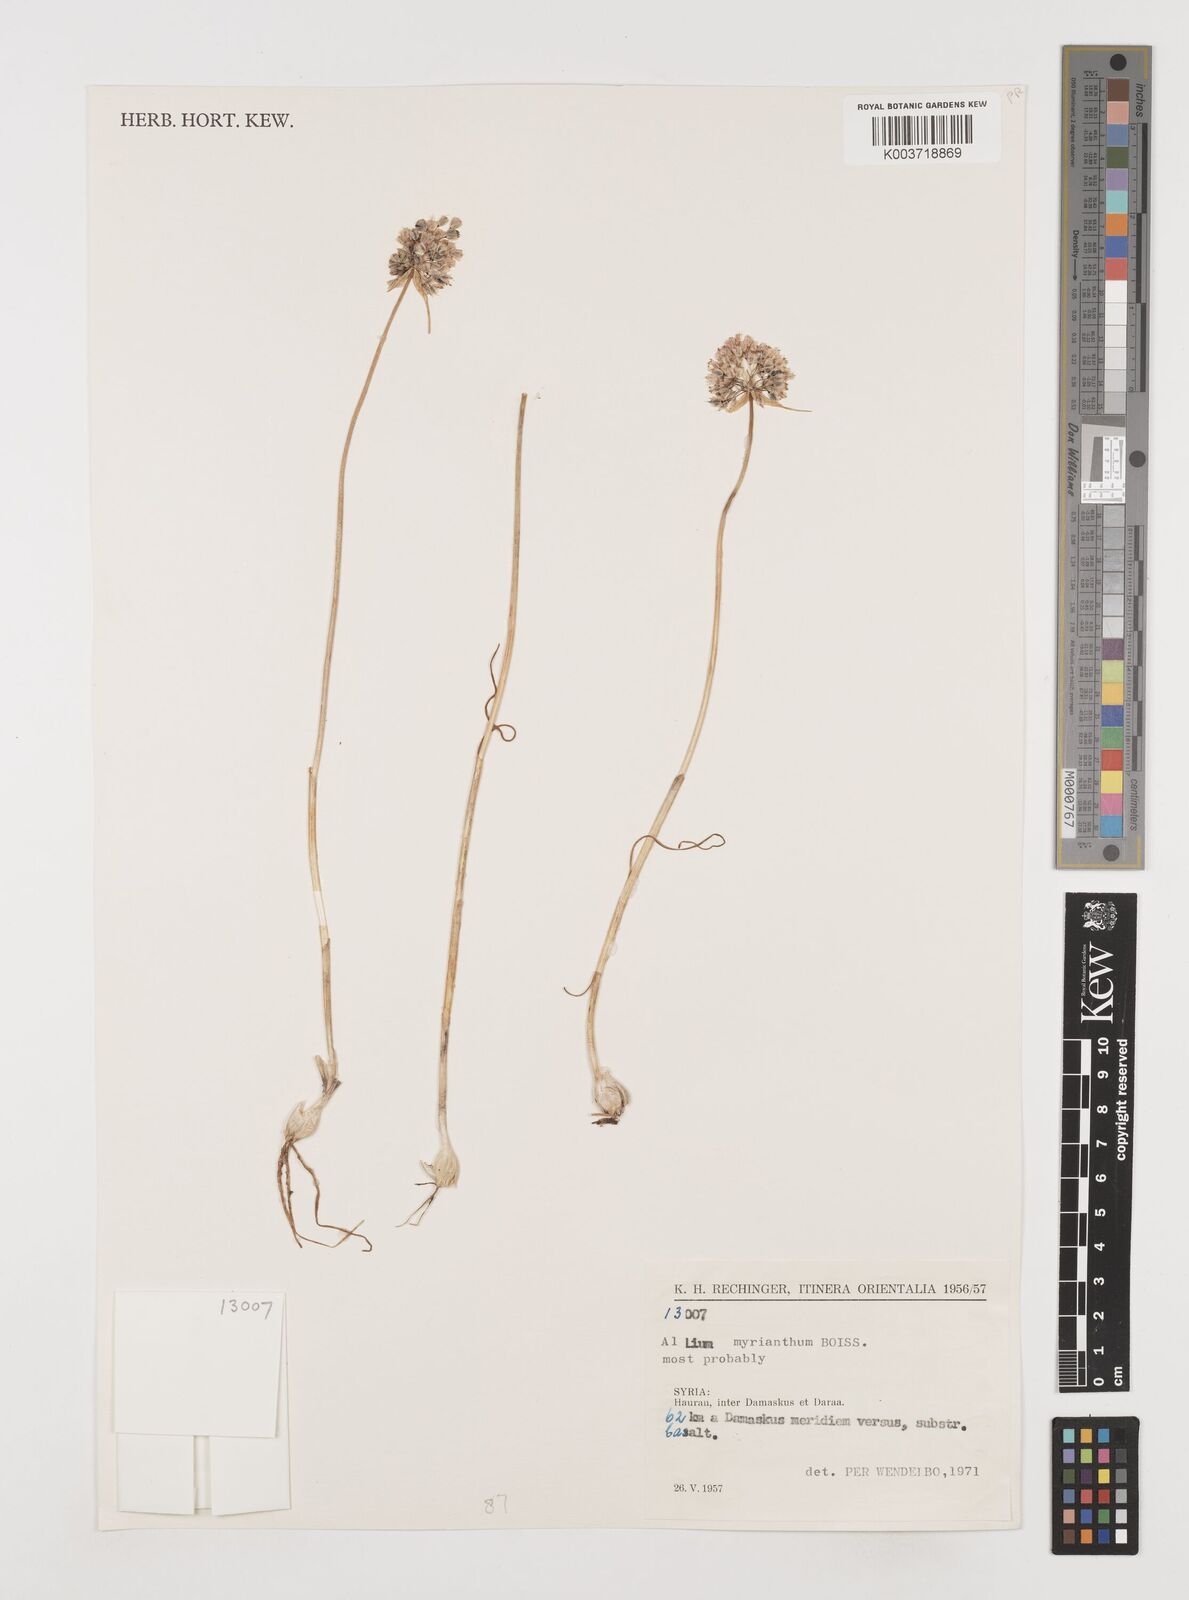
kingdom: Plantae
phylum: Tracheophyta
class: Liliopsida
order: Asparagales
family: Amaryllidaceae
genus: Allium
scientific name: Allium myrianthum
